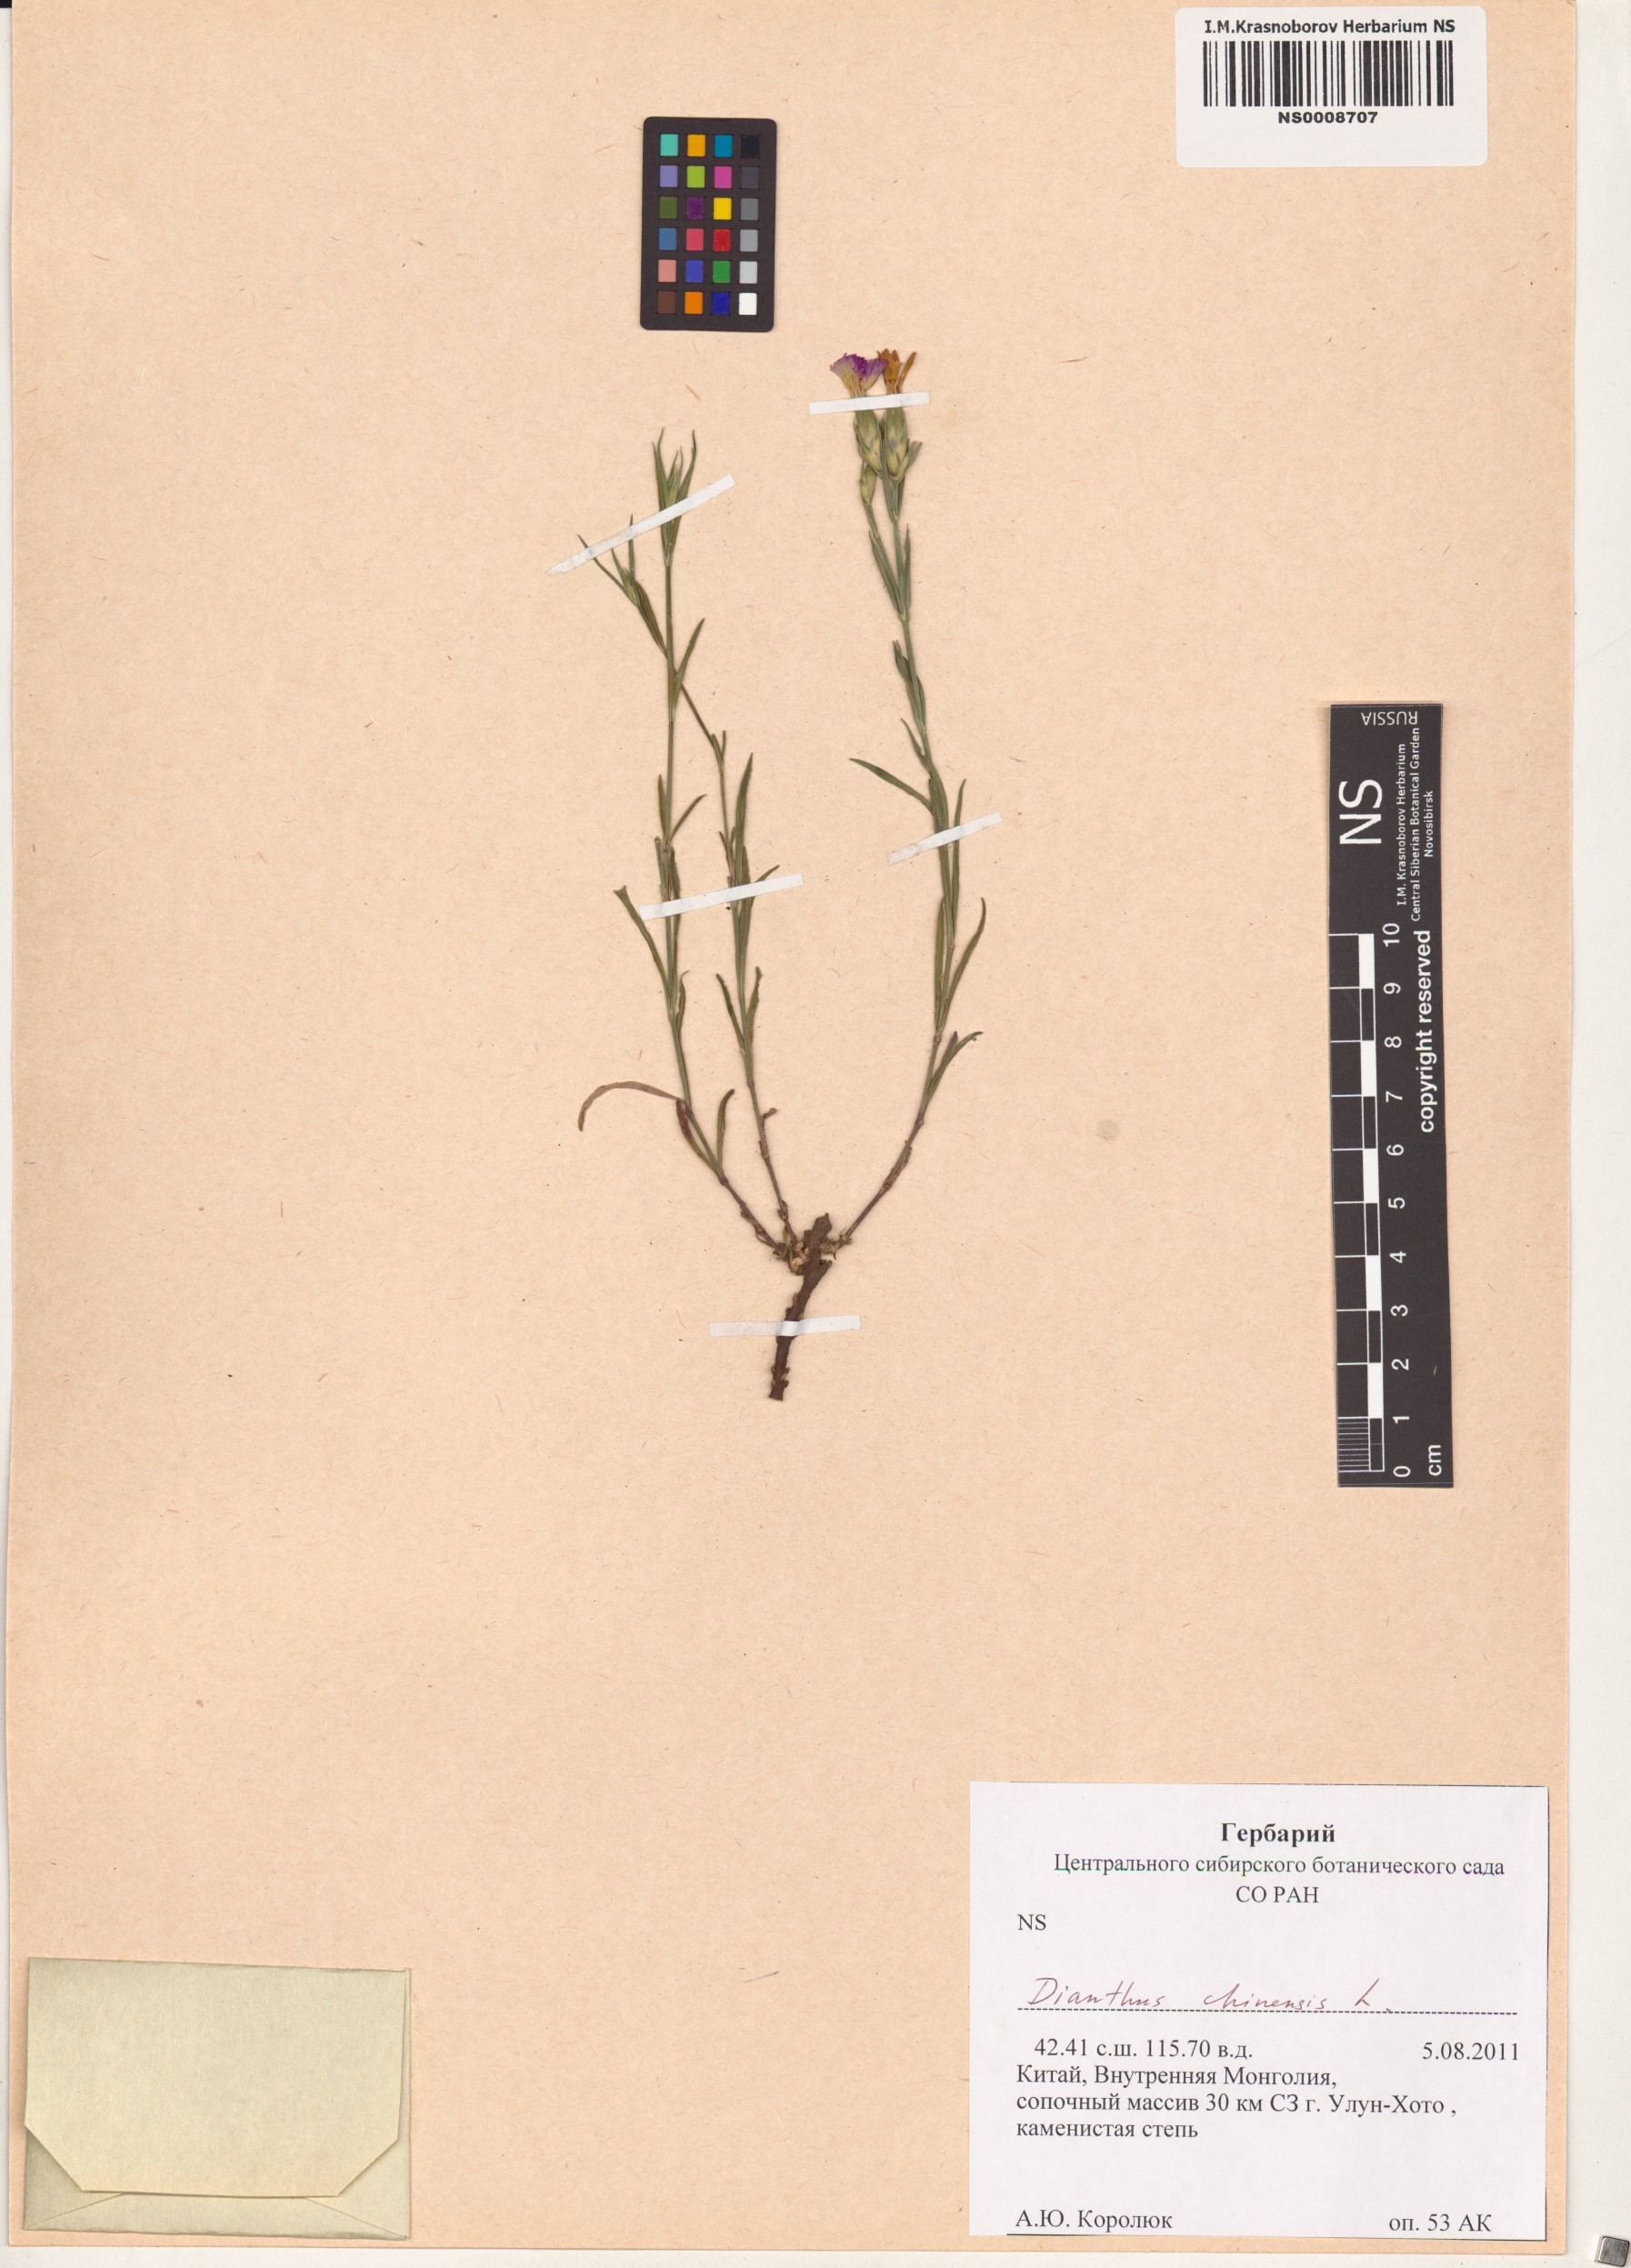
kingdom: Plantae
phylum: Tracheophyta
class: Magnoliopsida
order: Caryophyllales
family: Caryophyllaceae
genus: Dianthus
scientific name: Dianthus chinensis
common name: Rainbow pink
